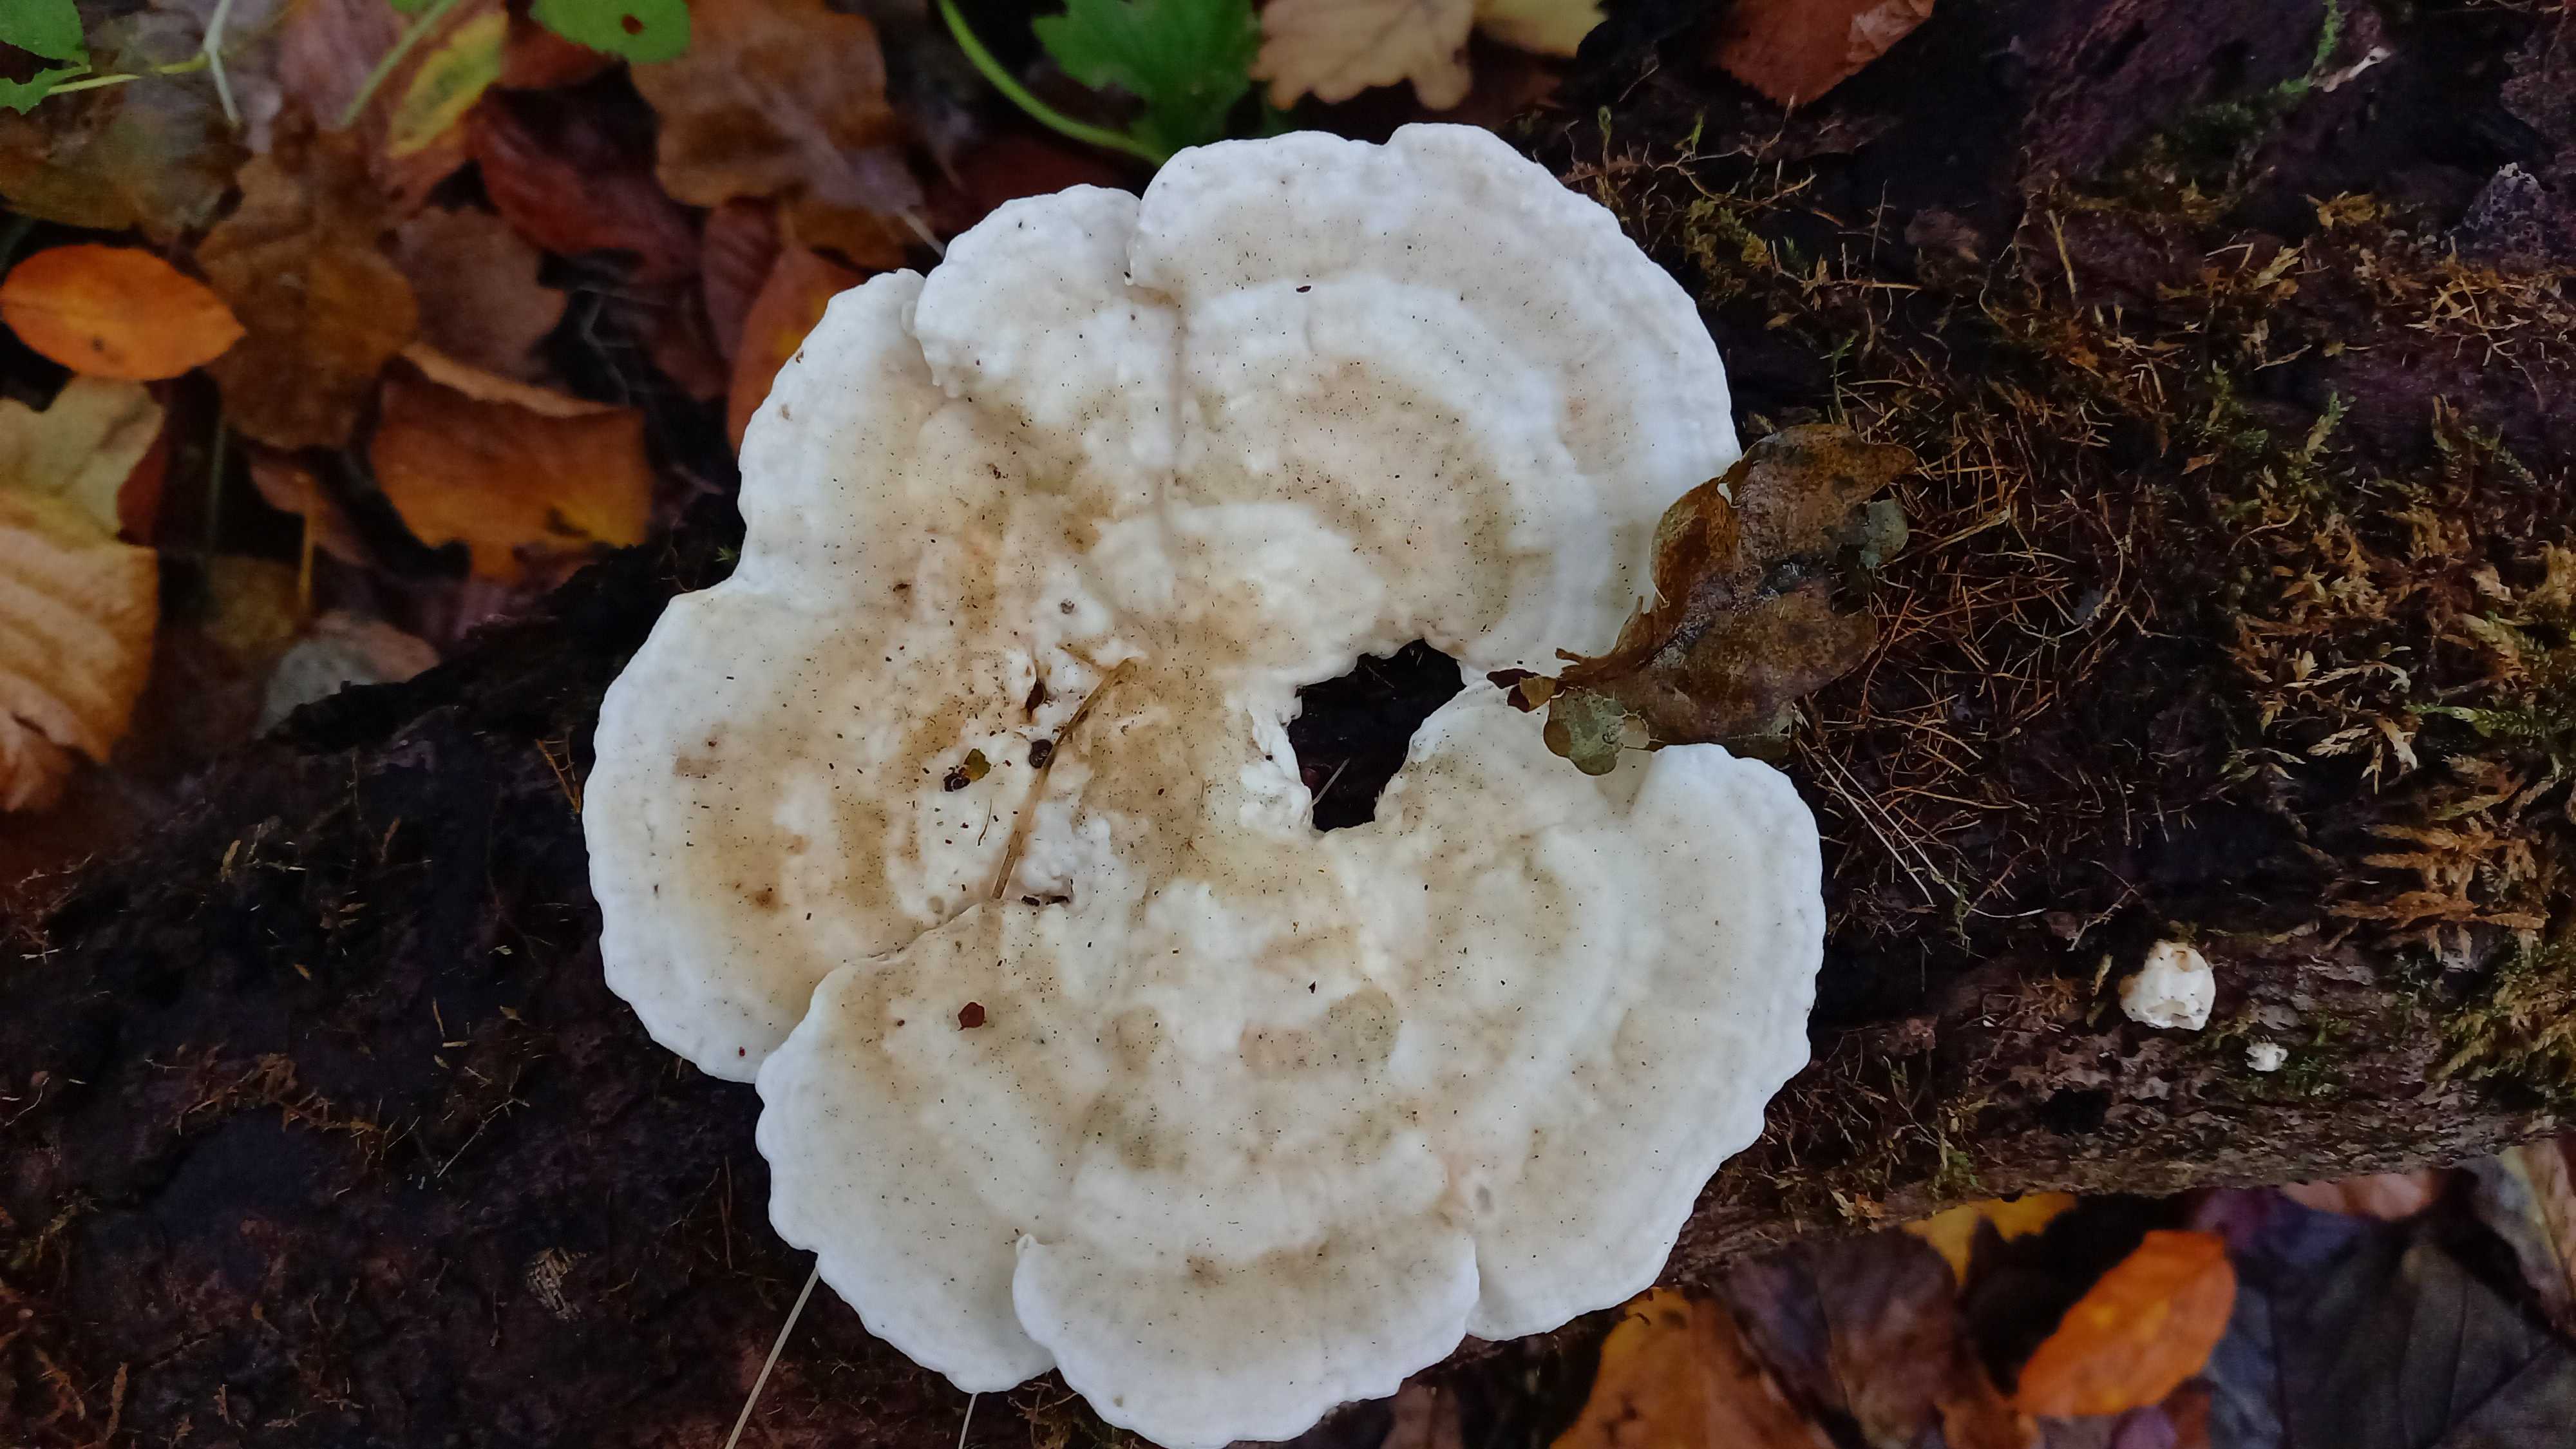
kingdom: Fungi
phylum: Basidiomycota
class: Agaricomycetes
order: Polyporales
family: Polyporaceae
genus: Trametes
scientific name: Trametes gibbosa
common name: puklet læderporesvamp
